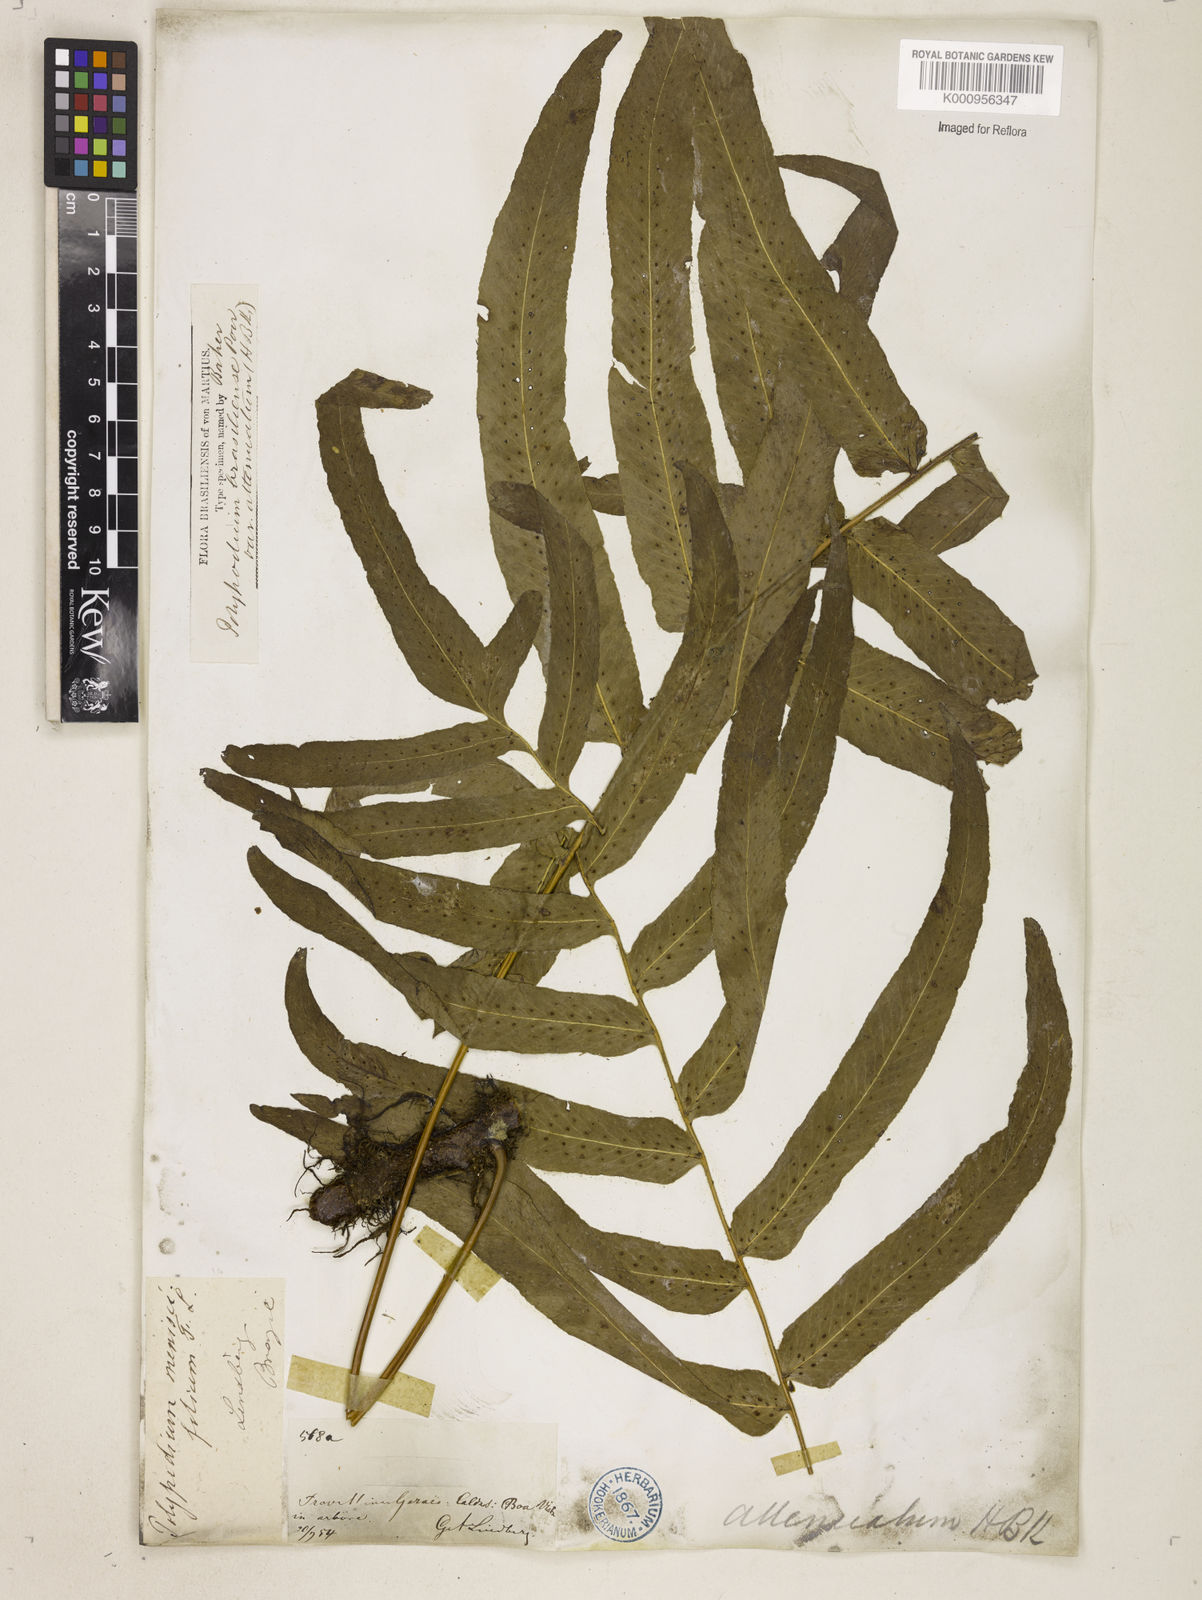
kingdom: Plantae
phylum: Tracheophyta
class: Polypodiopsida
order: Polypodiales
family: Polypodiaceae
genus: Serpocaulon
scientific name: Serpocaulon triseriale
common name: Angle-vein fern
